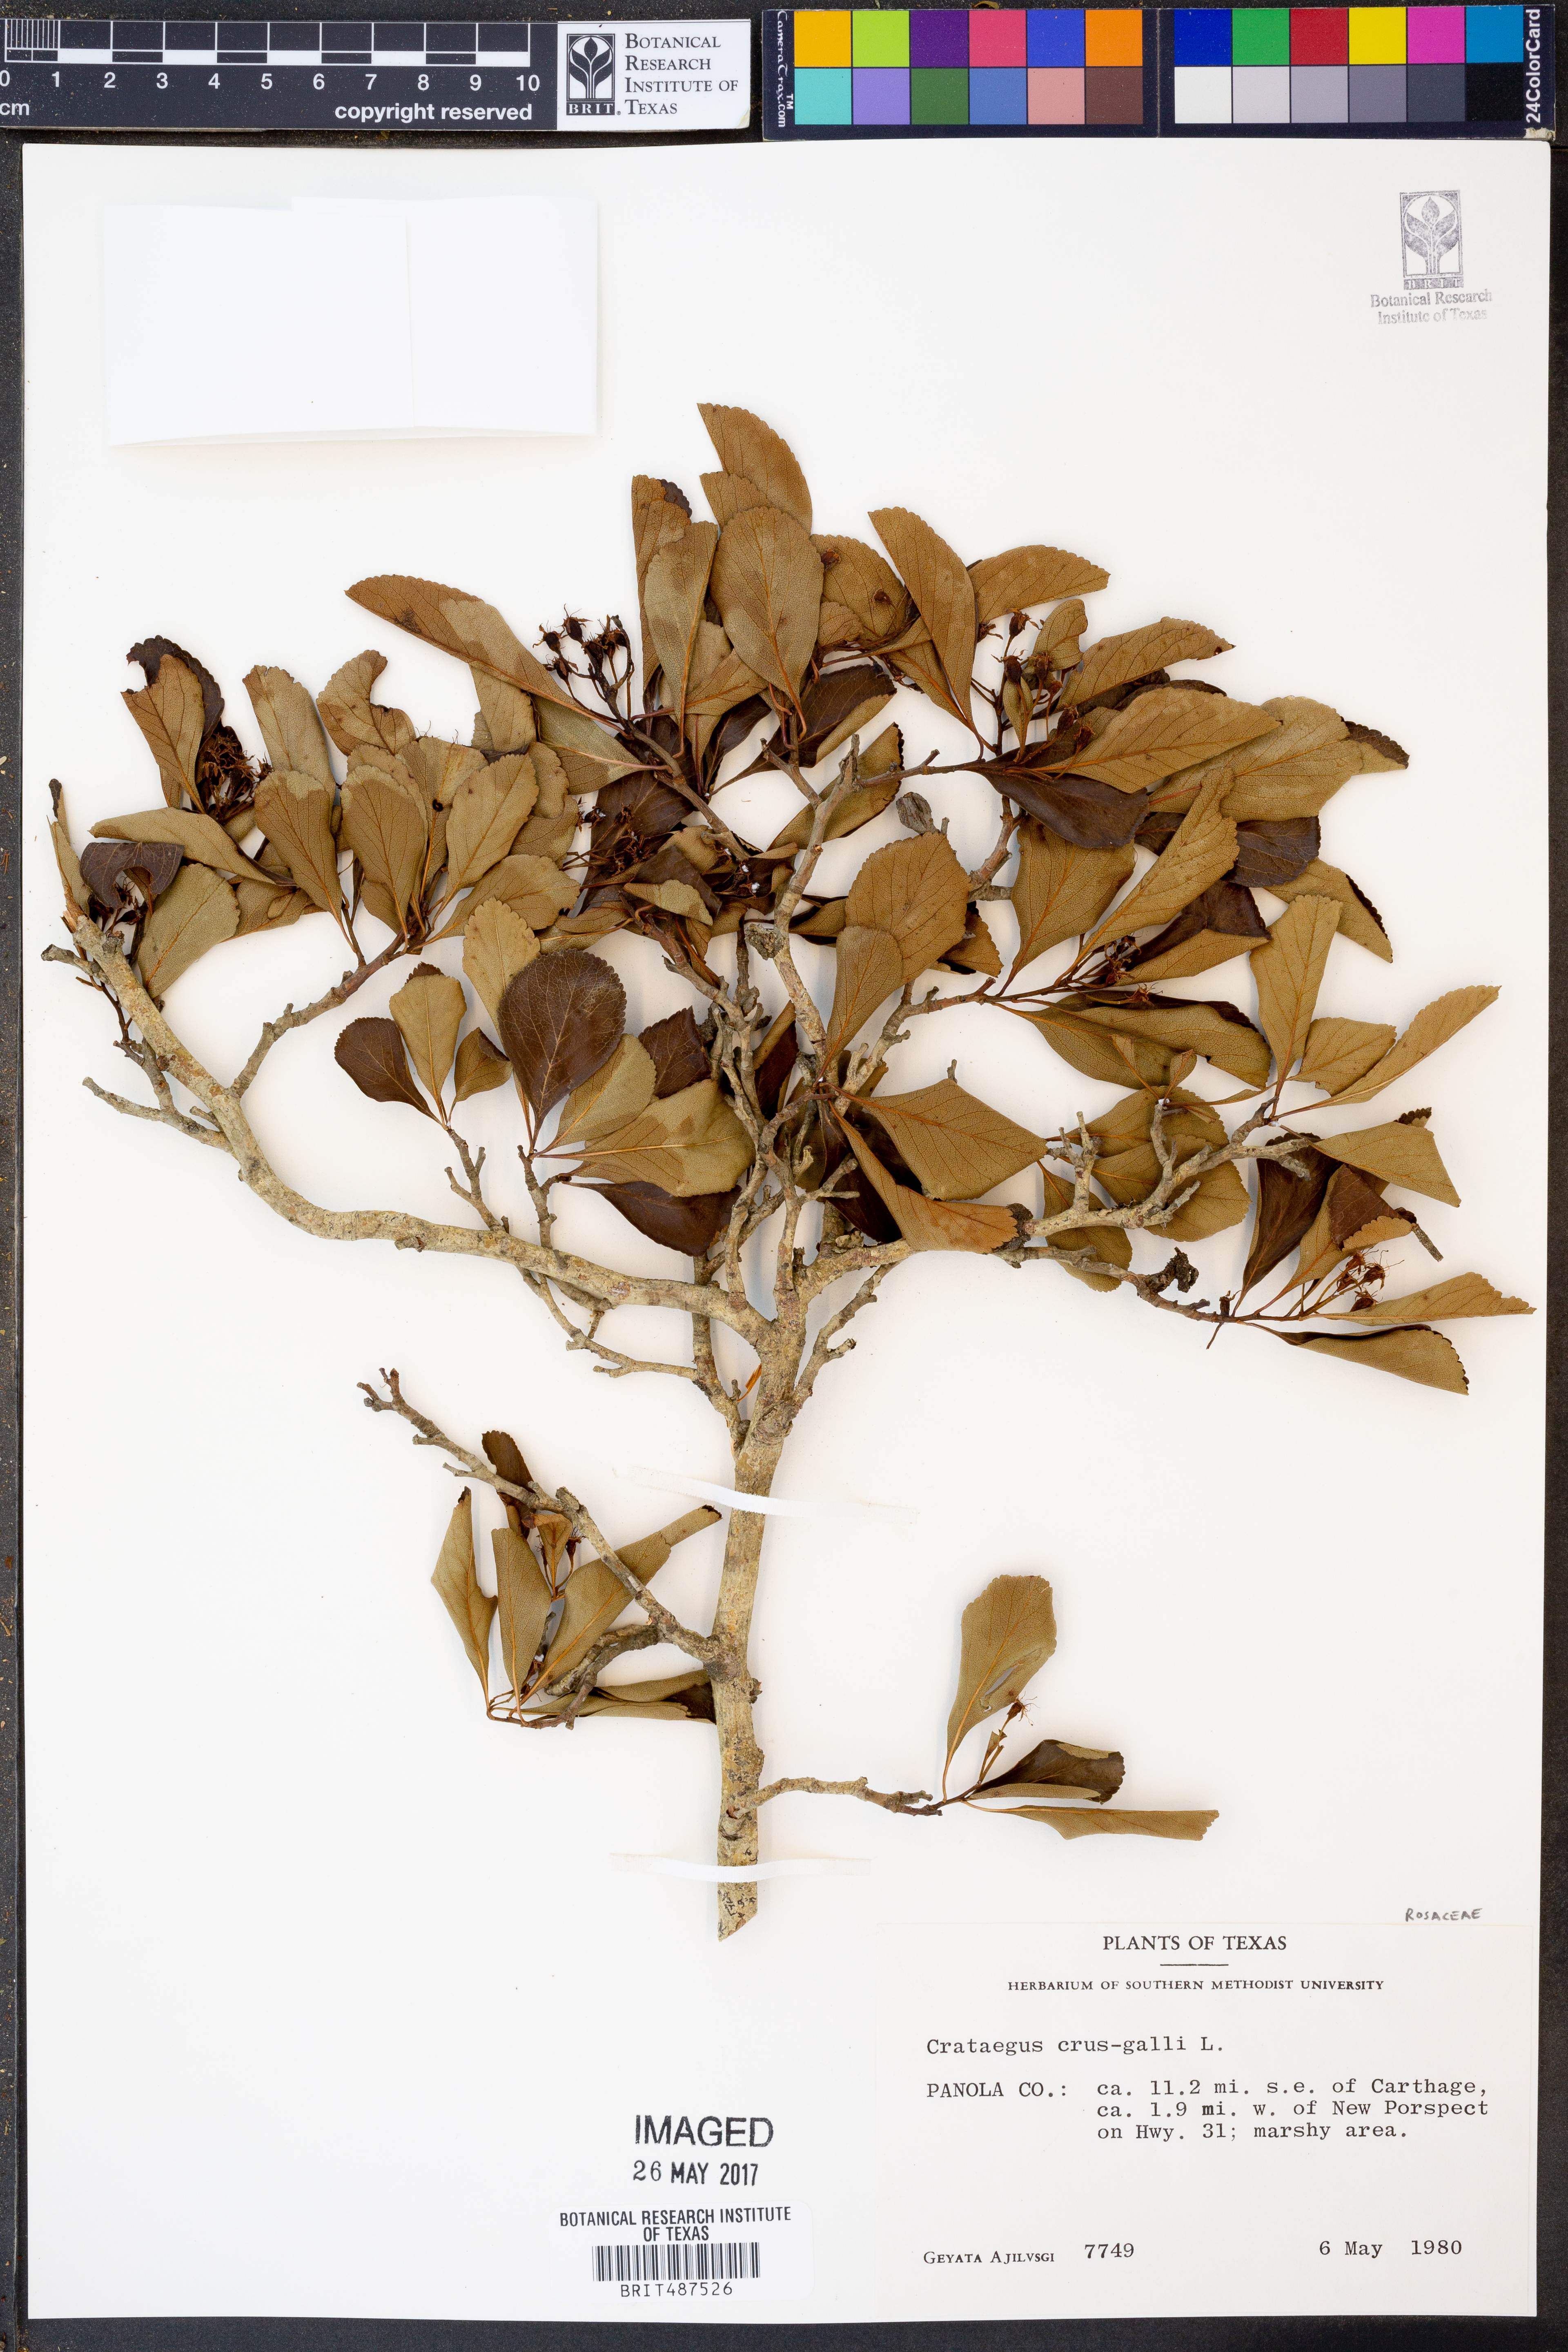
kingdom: Plantae
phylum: Tracheophyta
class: Magnoliopsida
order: Rosales
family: Rosaceae
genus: Crataegus
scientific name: Crataegus crus-galli
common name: Cockspurthorn
